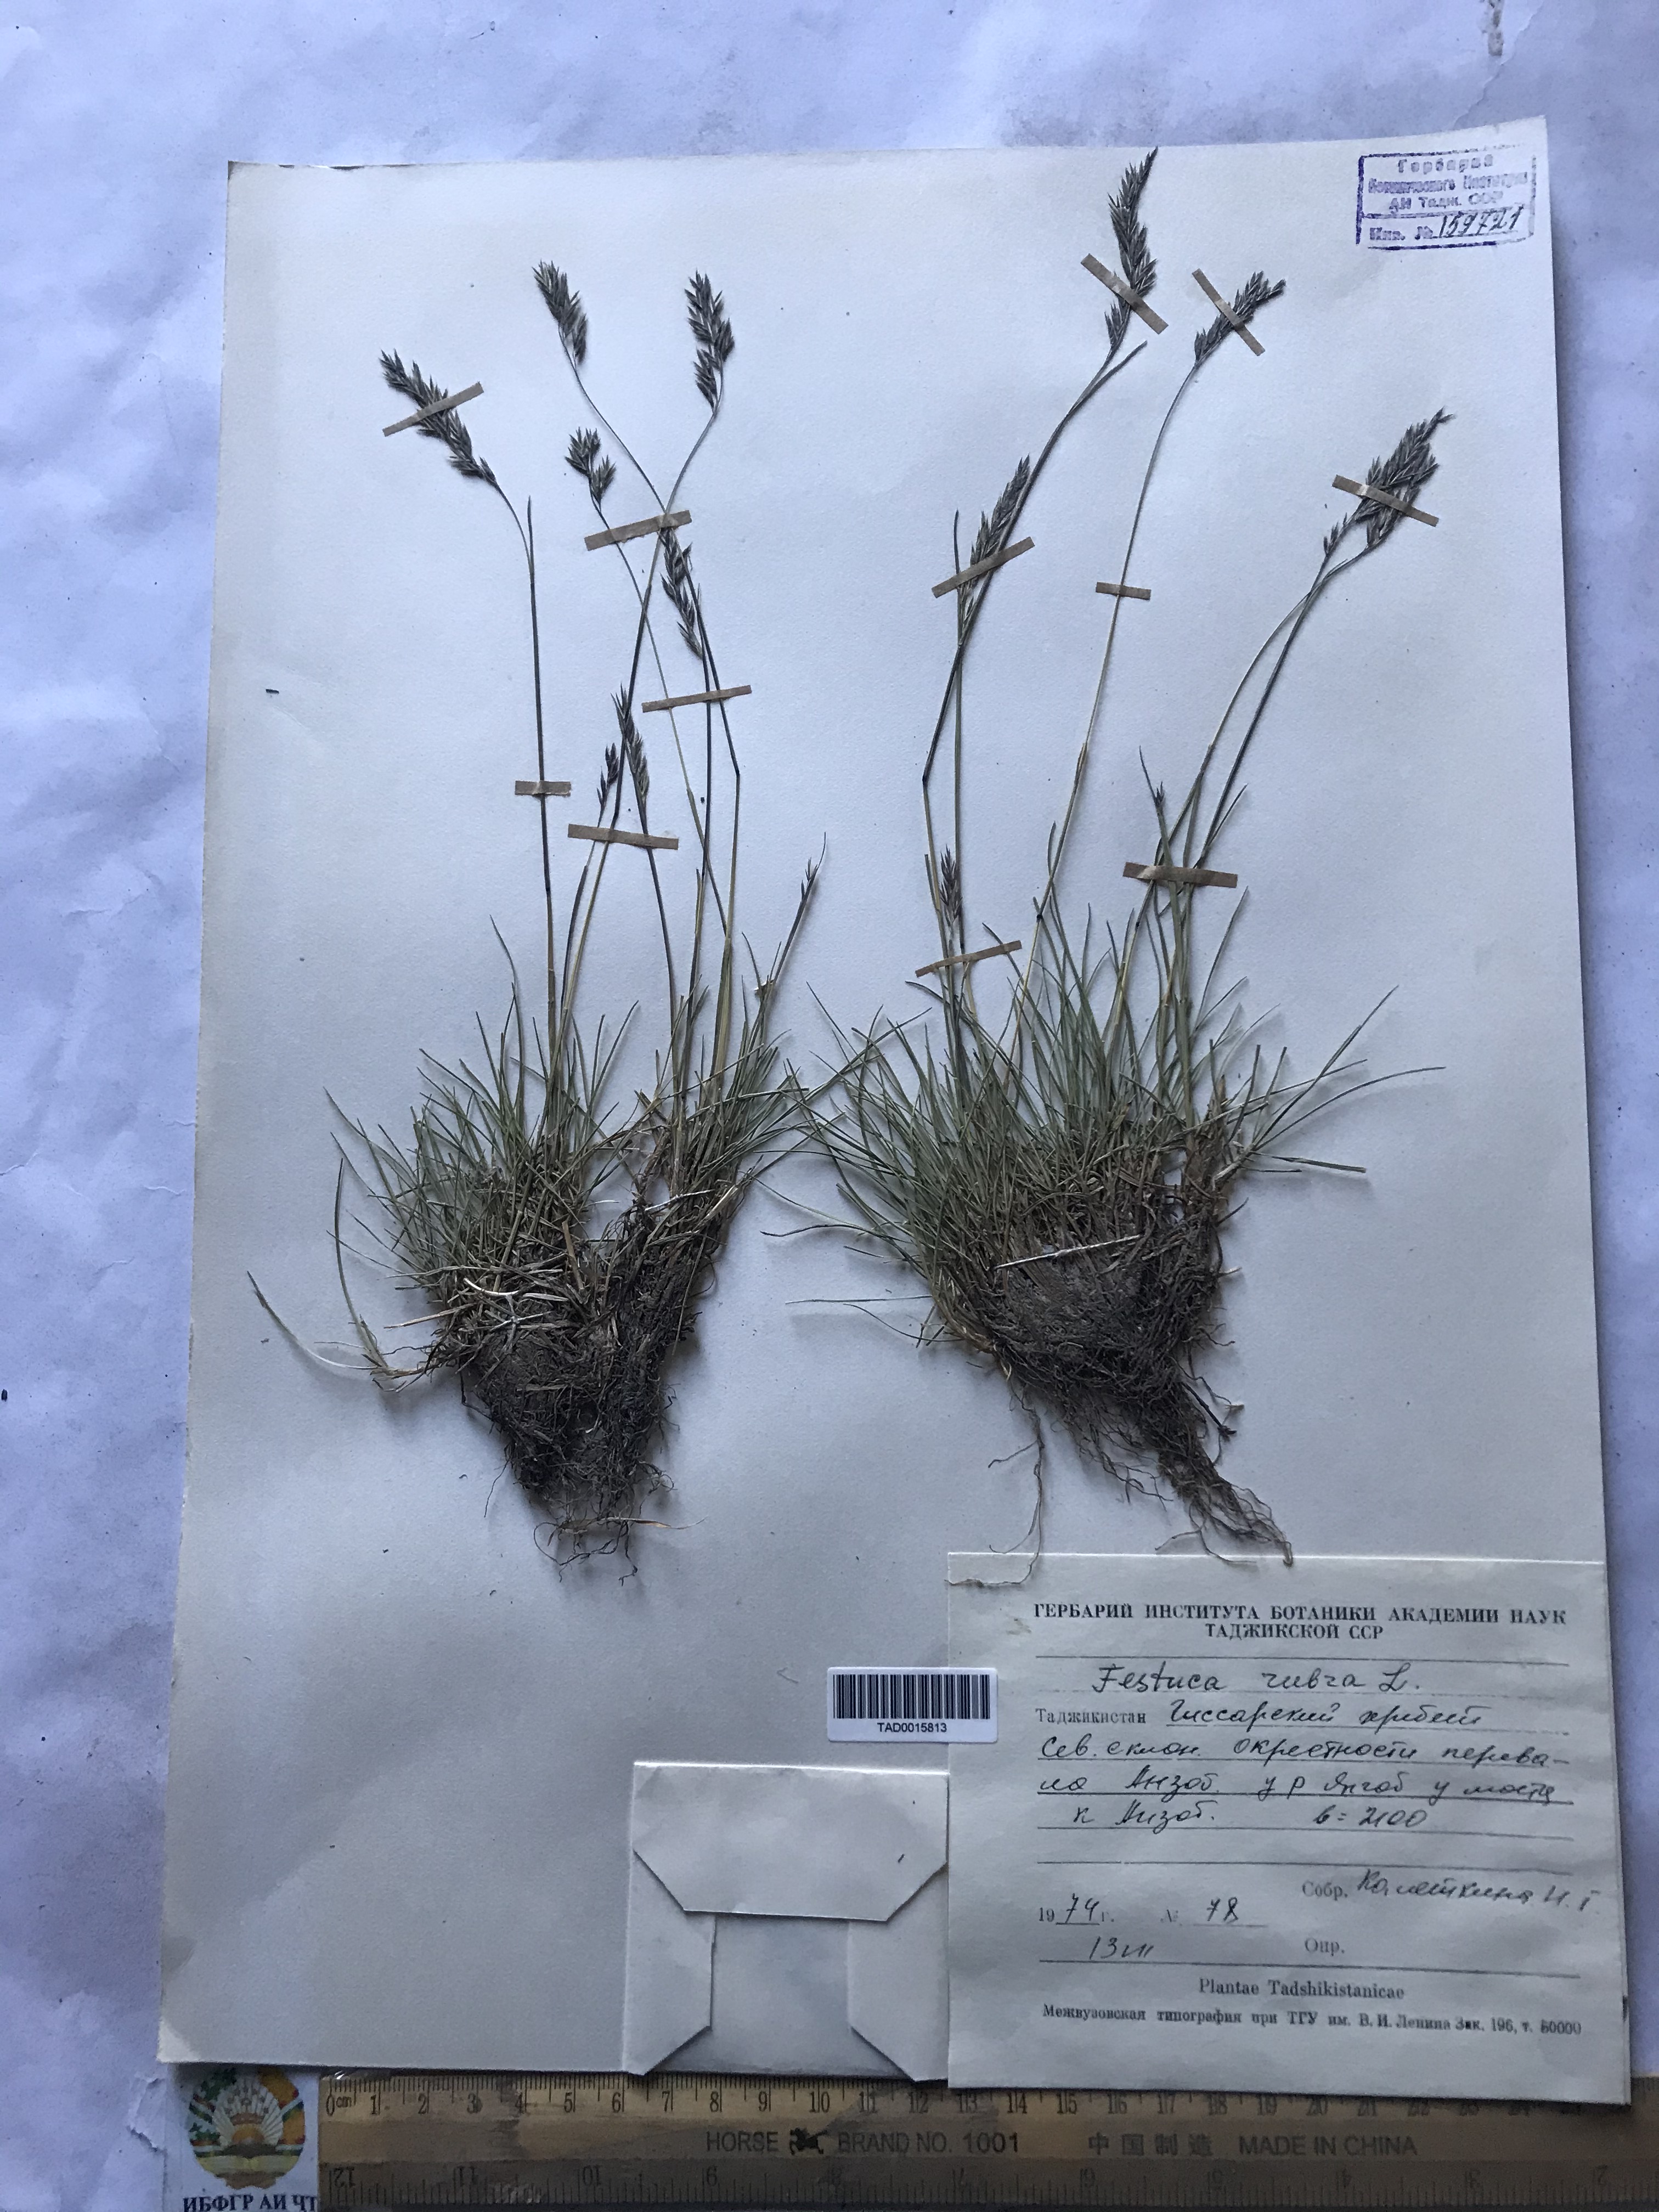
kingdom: Plantae
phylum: Tracheophyta
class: Liliopsida
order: Poales
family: Poaceae
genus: Festuca
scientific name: Festuca rubra
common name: Red fescue
